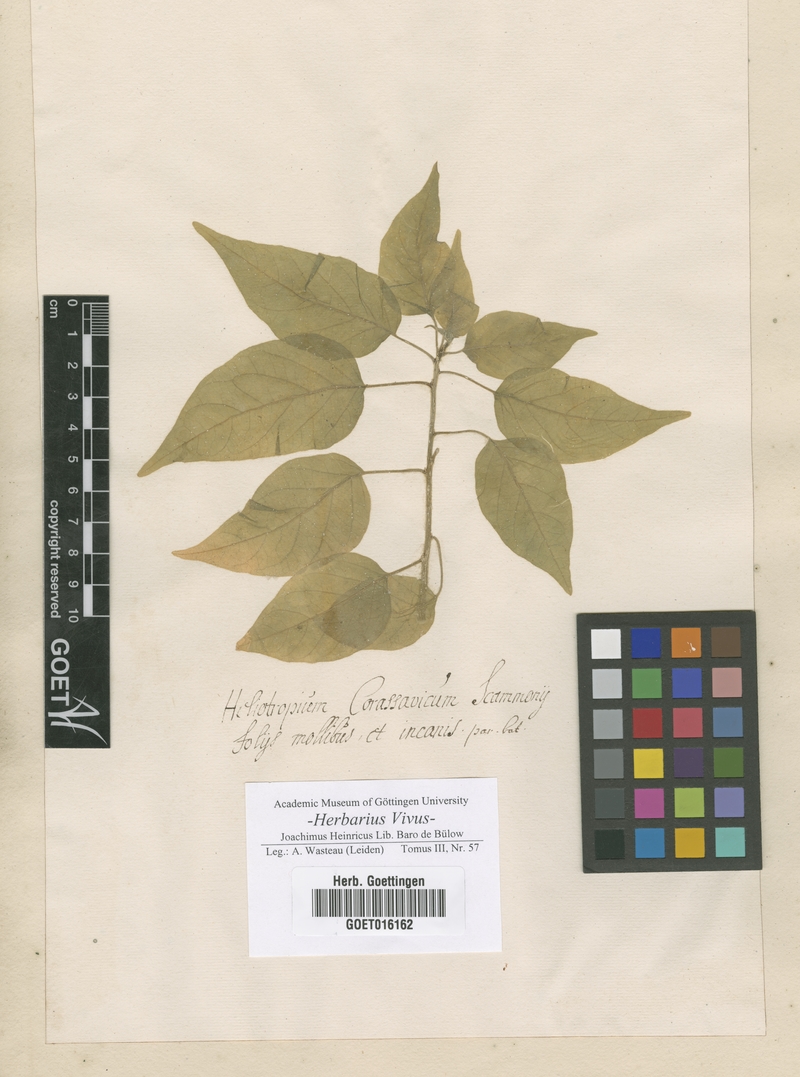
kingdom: Plantae
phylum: Tracheophyta
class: Magnoliopsida
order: Boraginales
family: Heliotropiaceae
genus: Heliotropium
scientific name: Heliotropium curassavicum
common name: Seaside heliotrope
